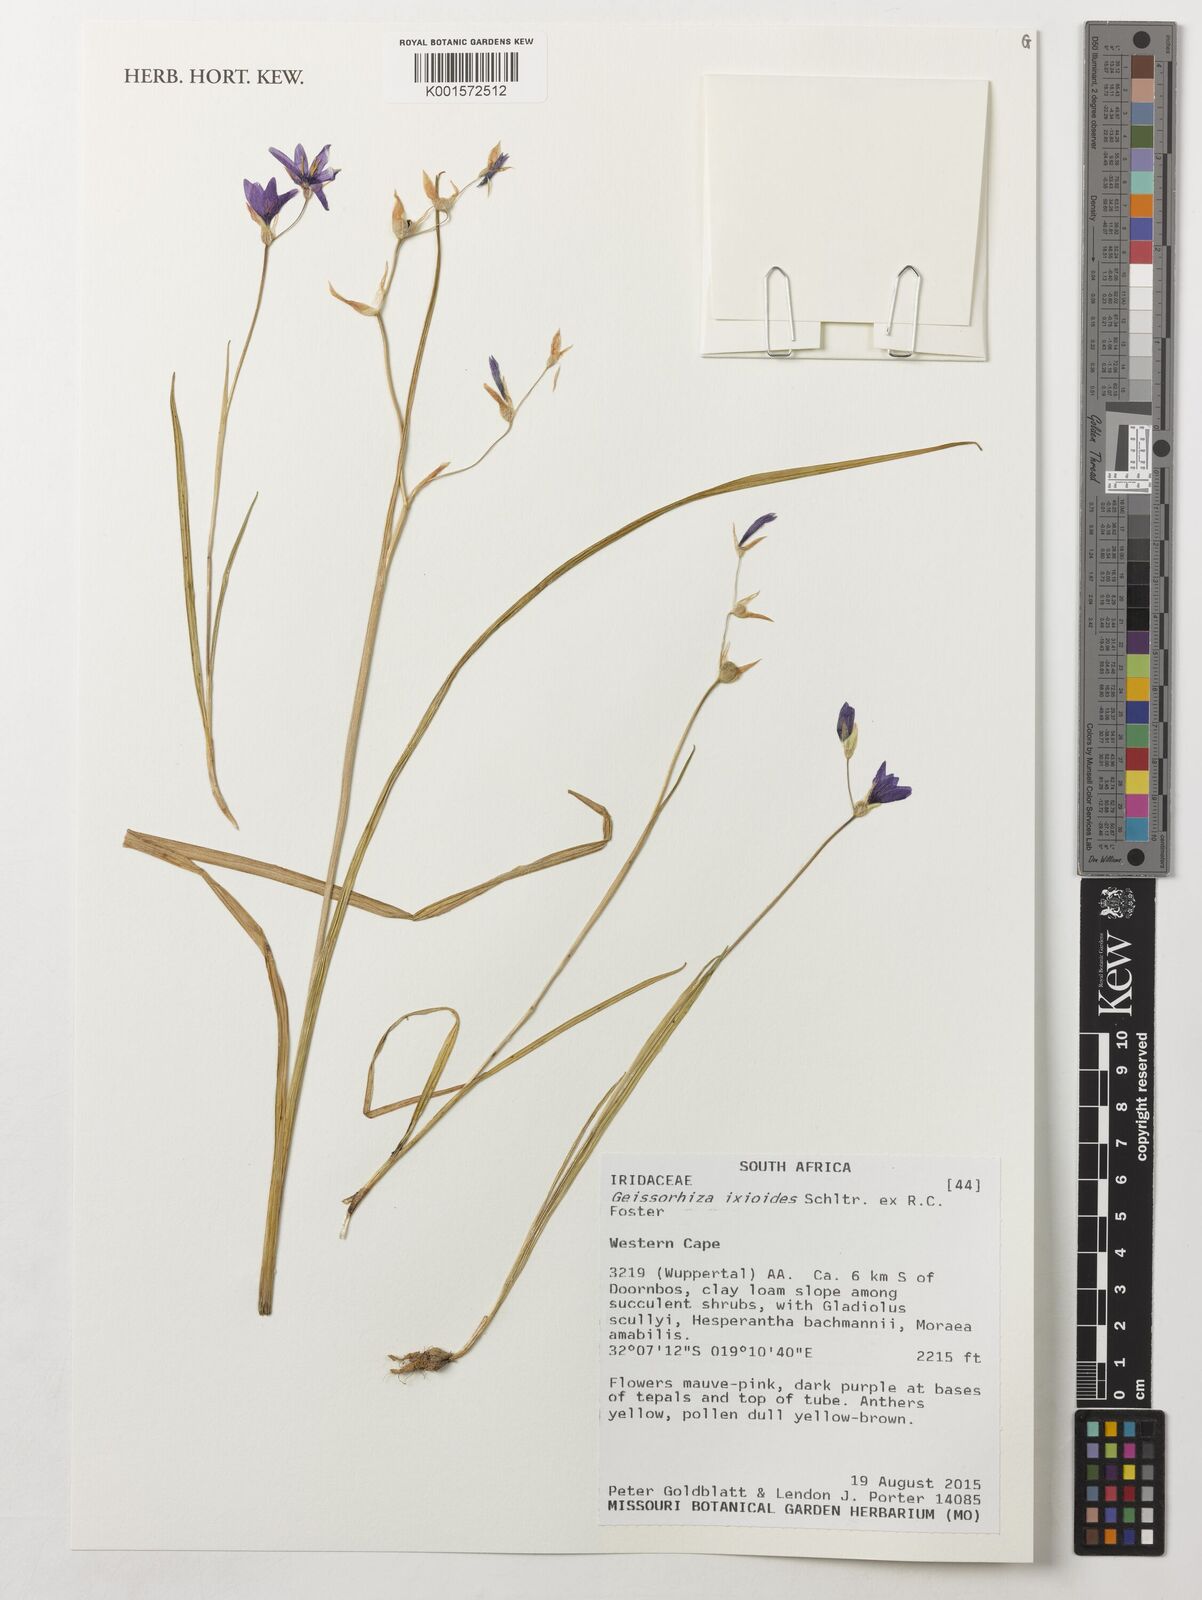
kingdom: Plantae
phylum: Tracheophyta
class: Liliopsida
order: Asparagales
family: Iridaceae
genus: Geissorhiza
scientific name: Geissorhiza ixioides
